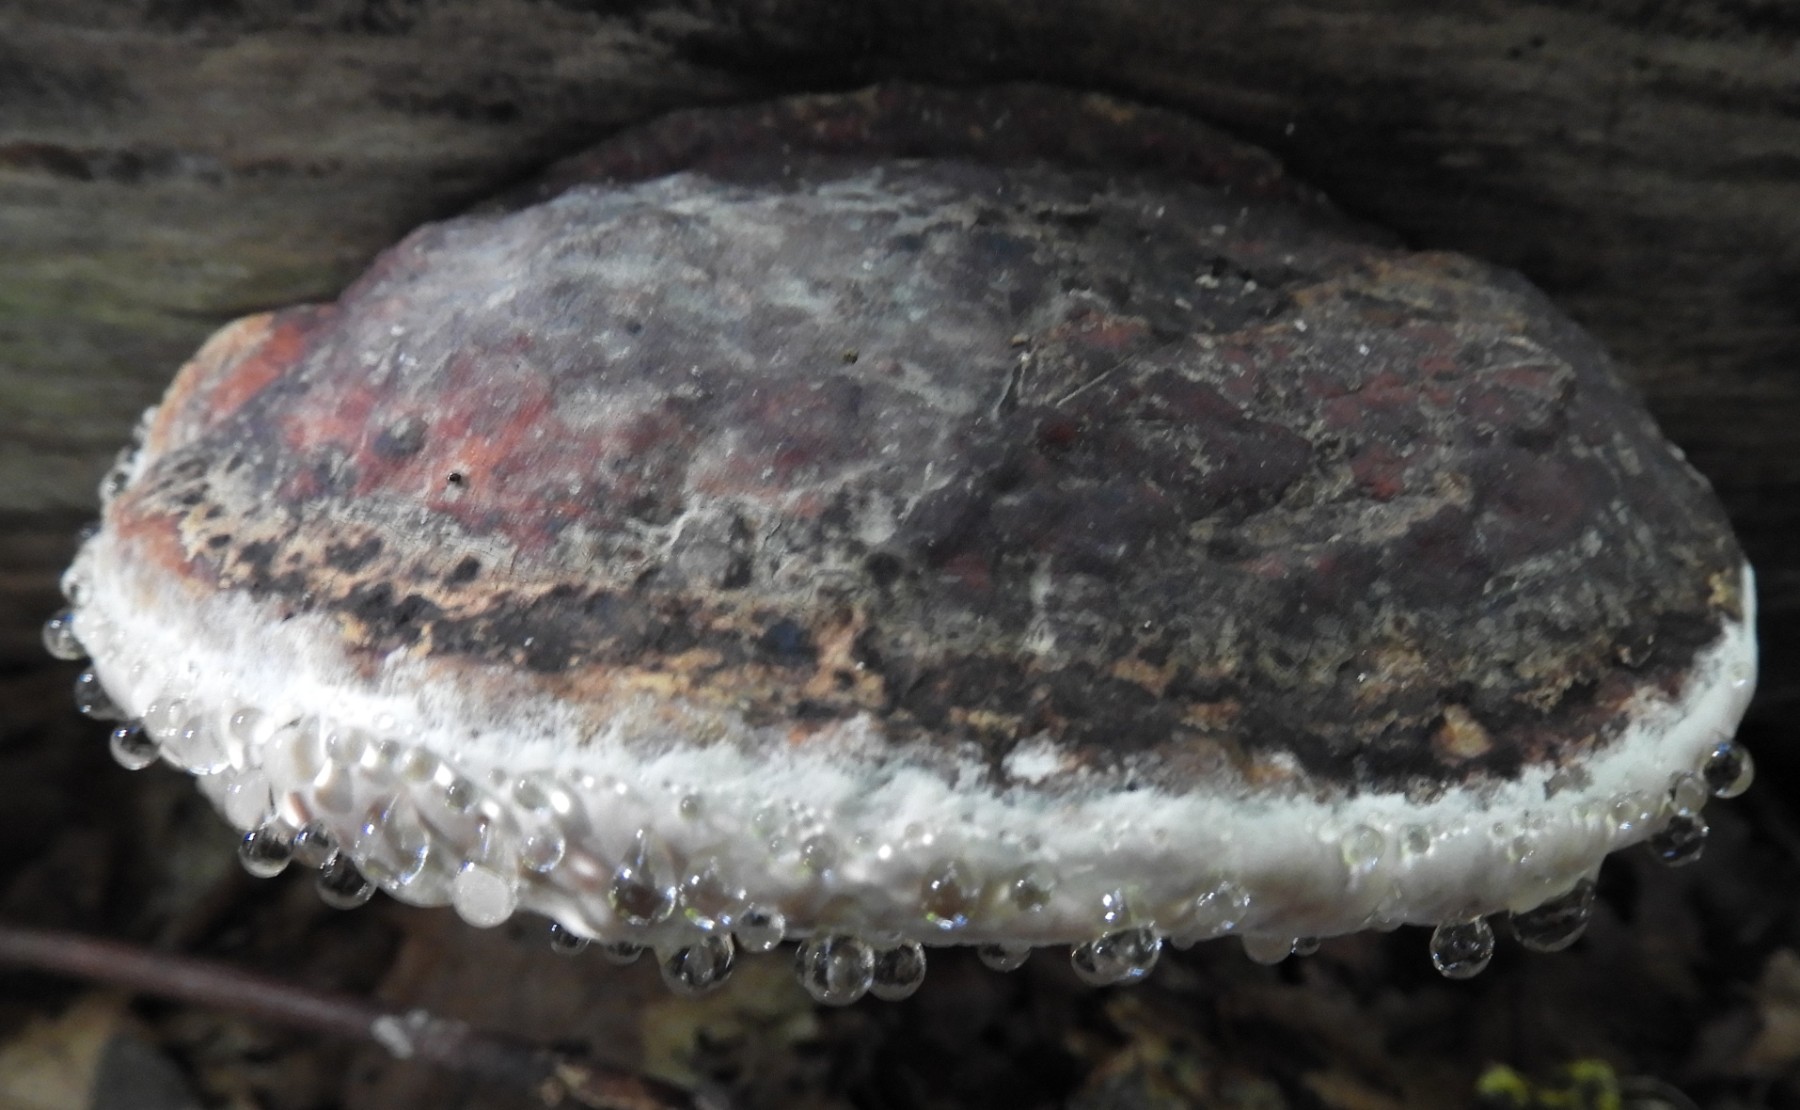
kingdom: Fungi
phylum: Basidiomycota
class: Agaricomycetes
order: Polyporales
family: Fomitopsidaceae
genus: Fomitopsis
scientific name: Fomitopsis pinicola
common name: randbæltet hovporesvamp
